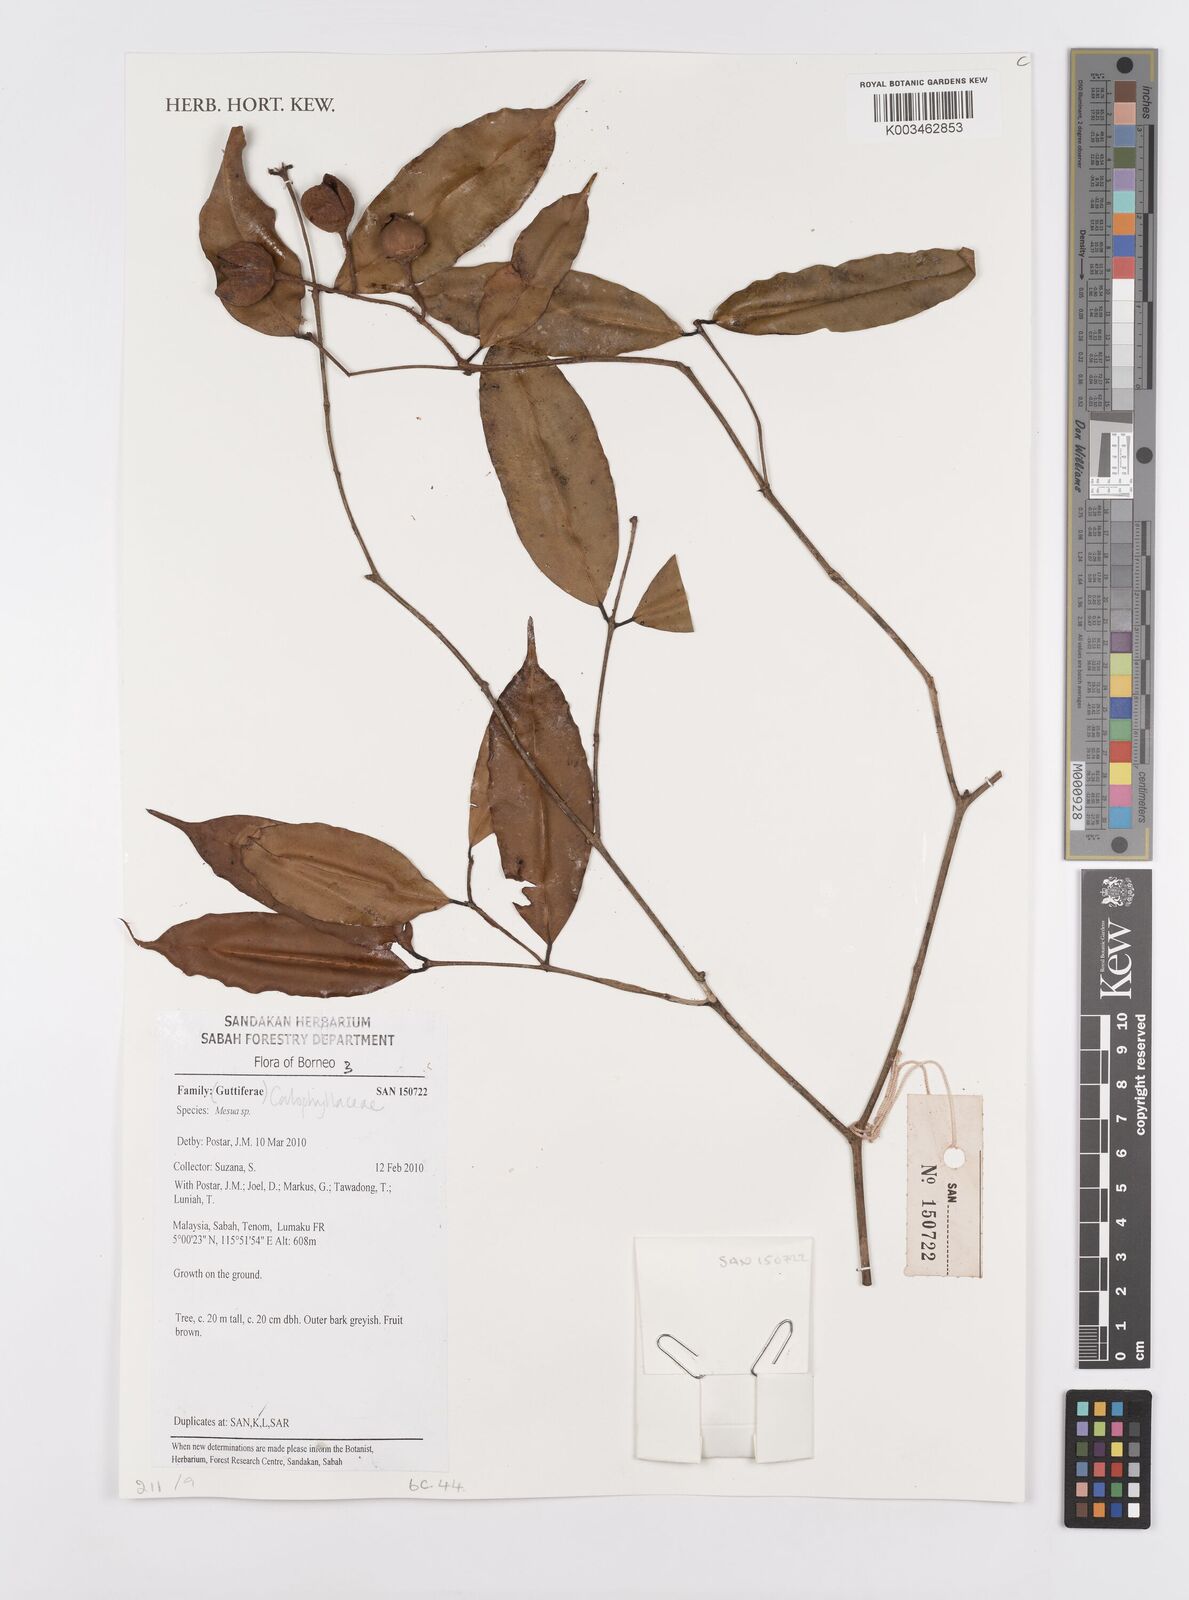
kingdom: Plantae
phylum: Tracheophyta
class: Magnoliopsida
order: Malpighiales
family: Calophyllaceae
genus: Mesua
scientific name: Mesua
